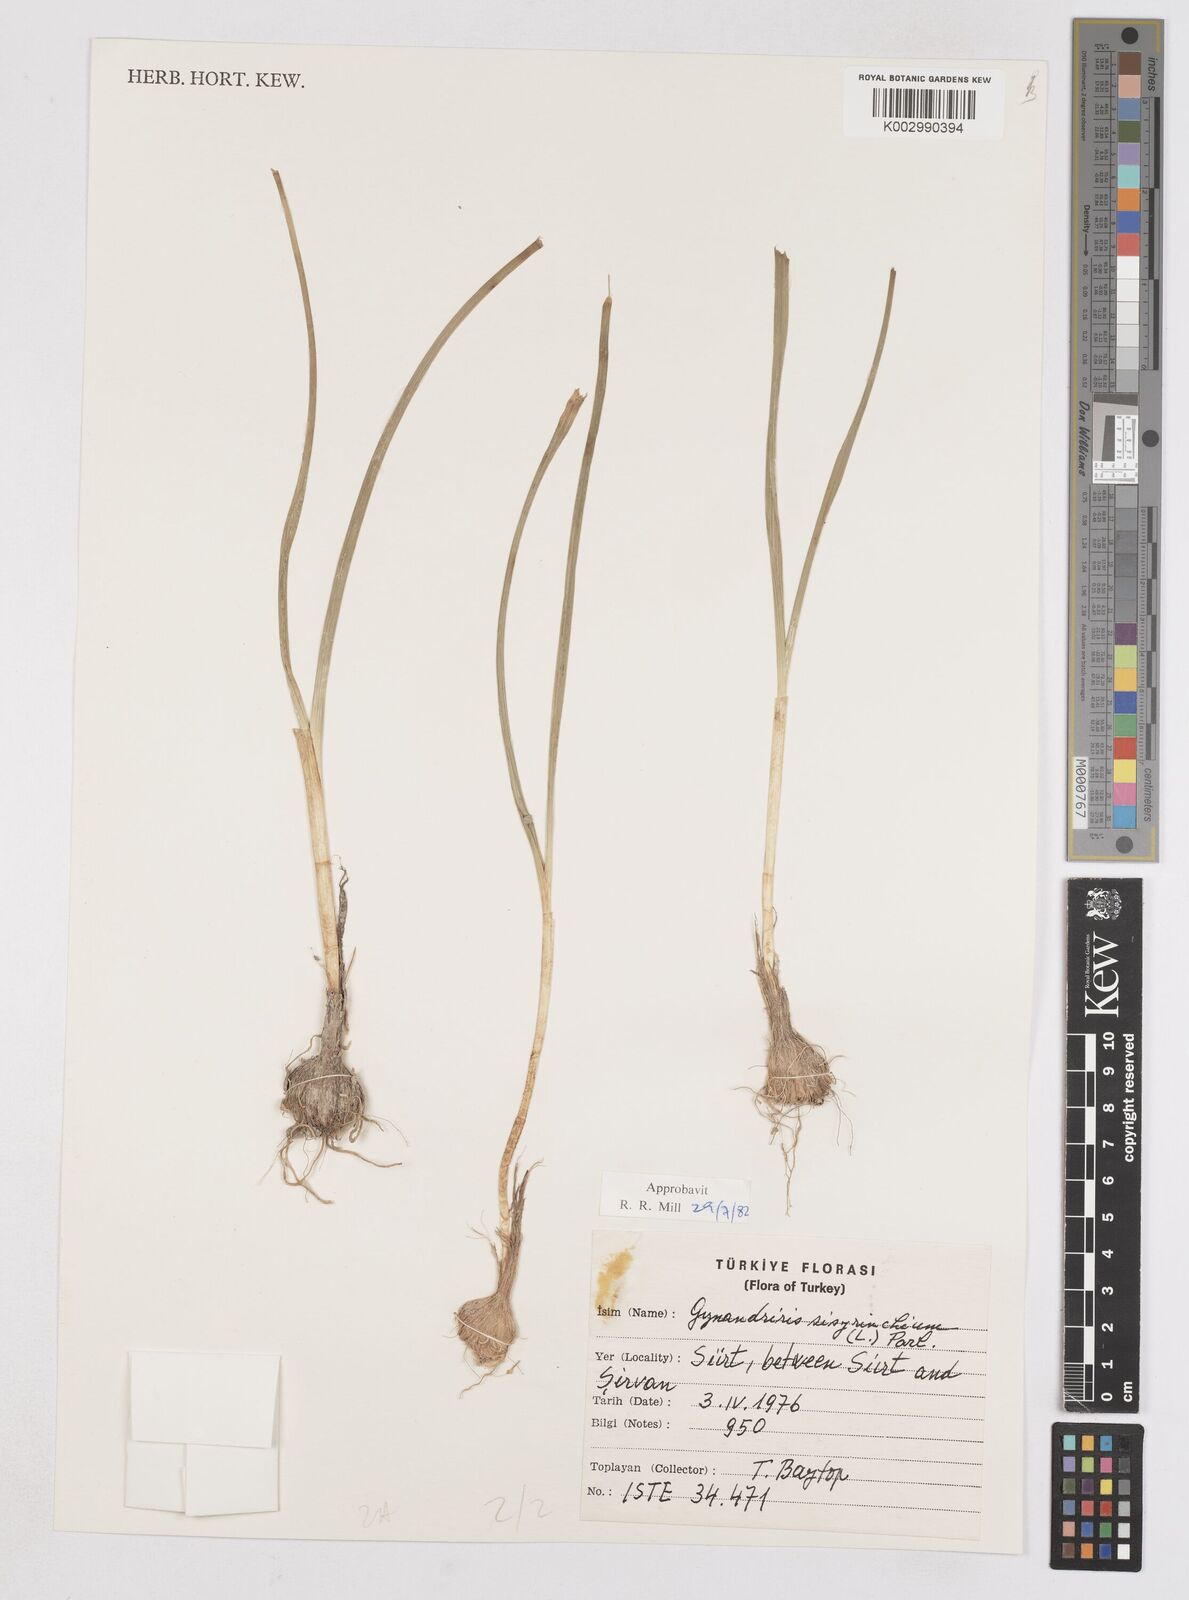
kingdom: Plantae
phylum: Tracheophyta
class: Liliopsida
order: Asparagales
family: Iridaceae
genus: Moraea
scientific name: Moraea sisyrinchium
